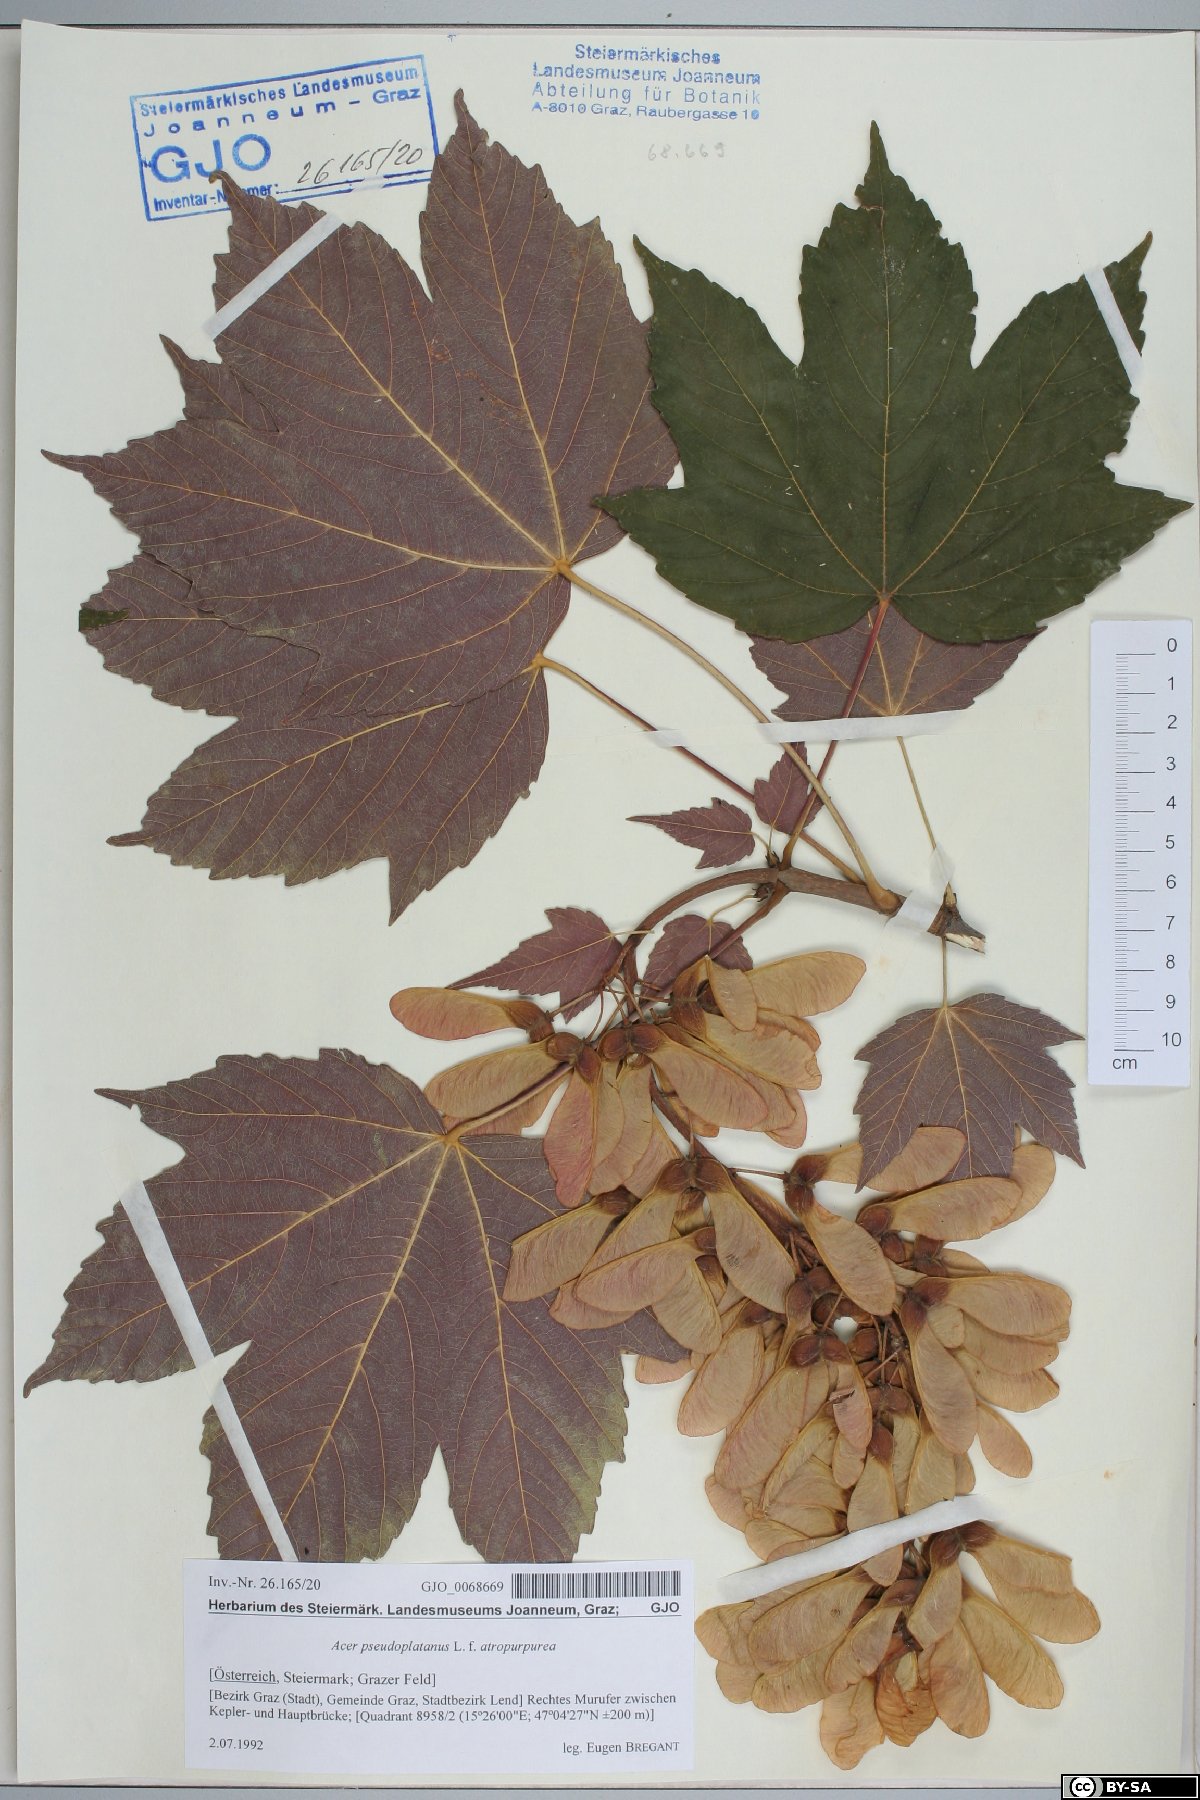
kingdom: Plantae
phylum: Tracheophyta
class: Magnoliopsida
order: Sapindales
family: Sapindaceae
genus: Acer
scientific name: Acer pseudoplatanus
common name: Sycamore
